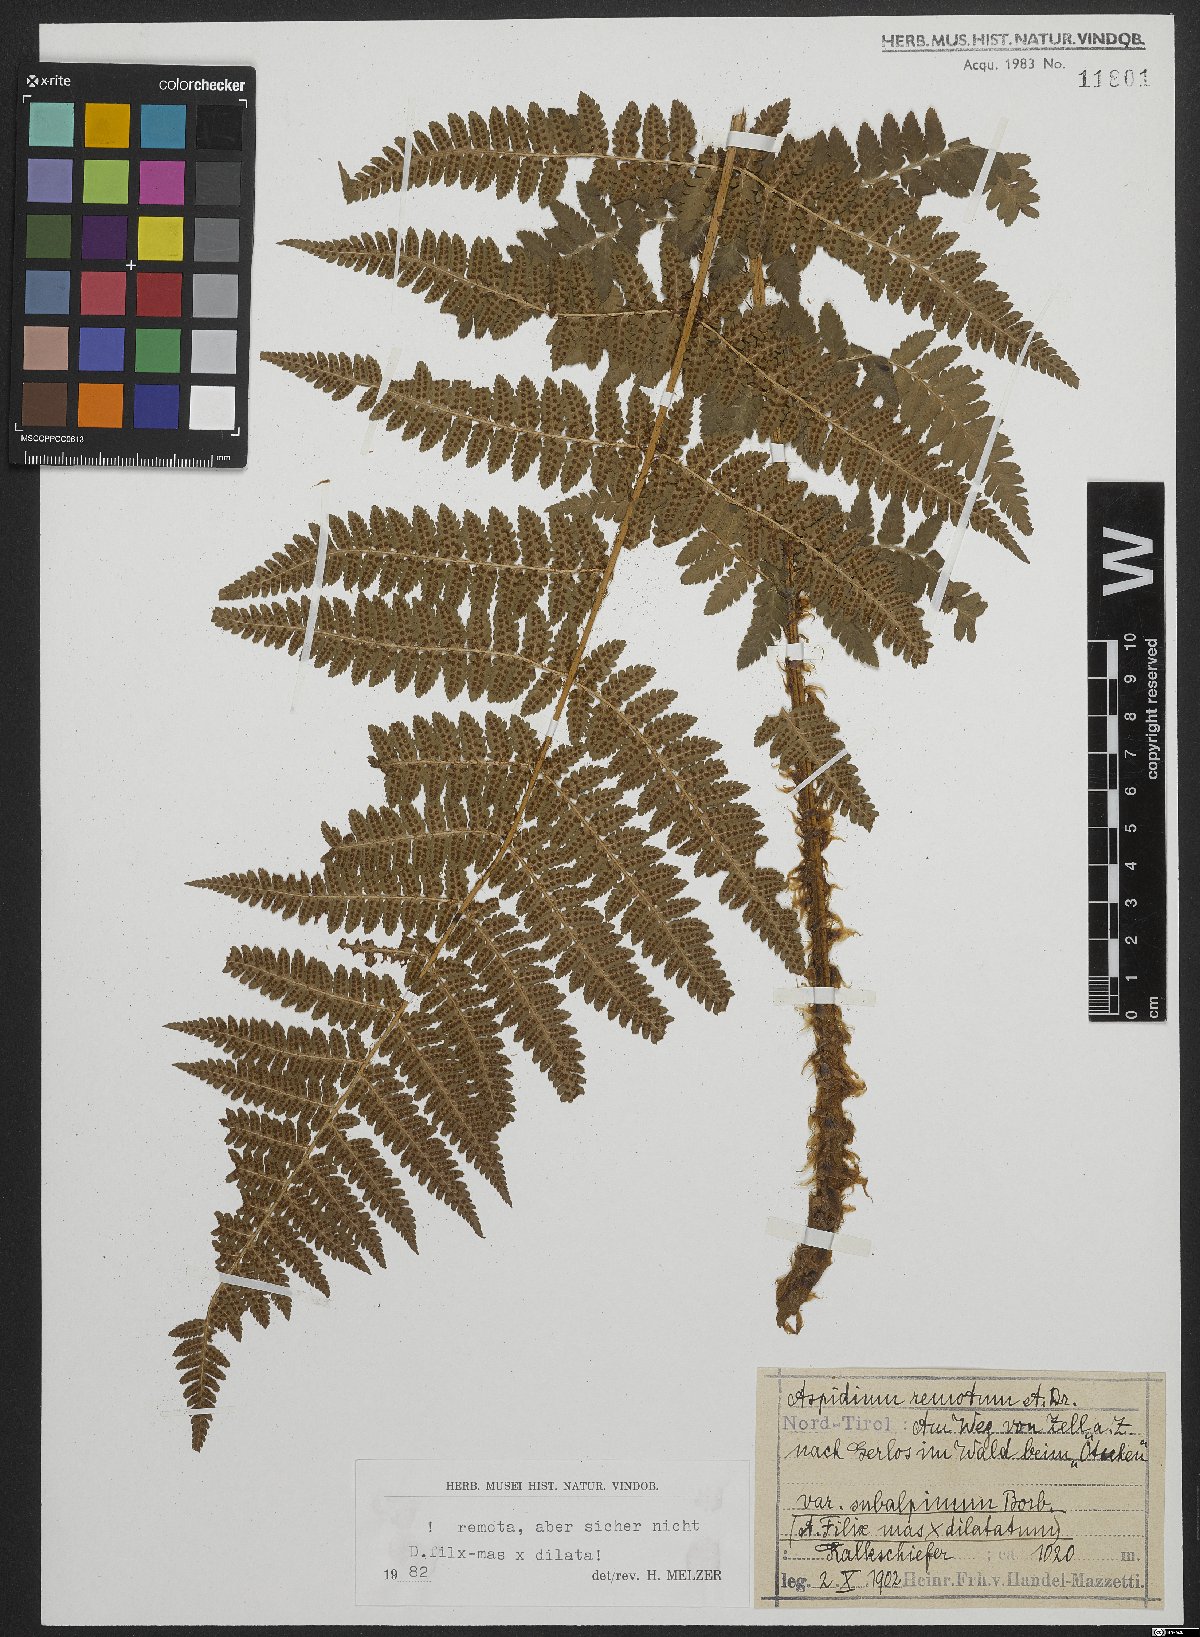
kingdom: Plantae
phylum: Tracheophyta
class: Polypodiopsida
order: Polypodiales
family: Dryopteridaceae
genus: Dryopteris
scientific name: Dryopteris remota
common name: Scaly buckler-fern
